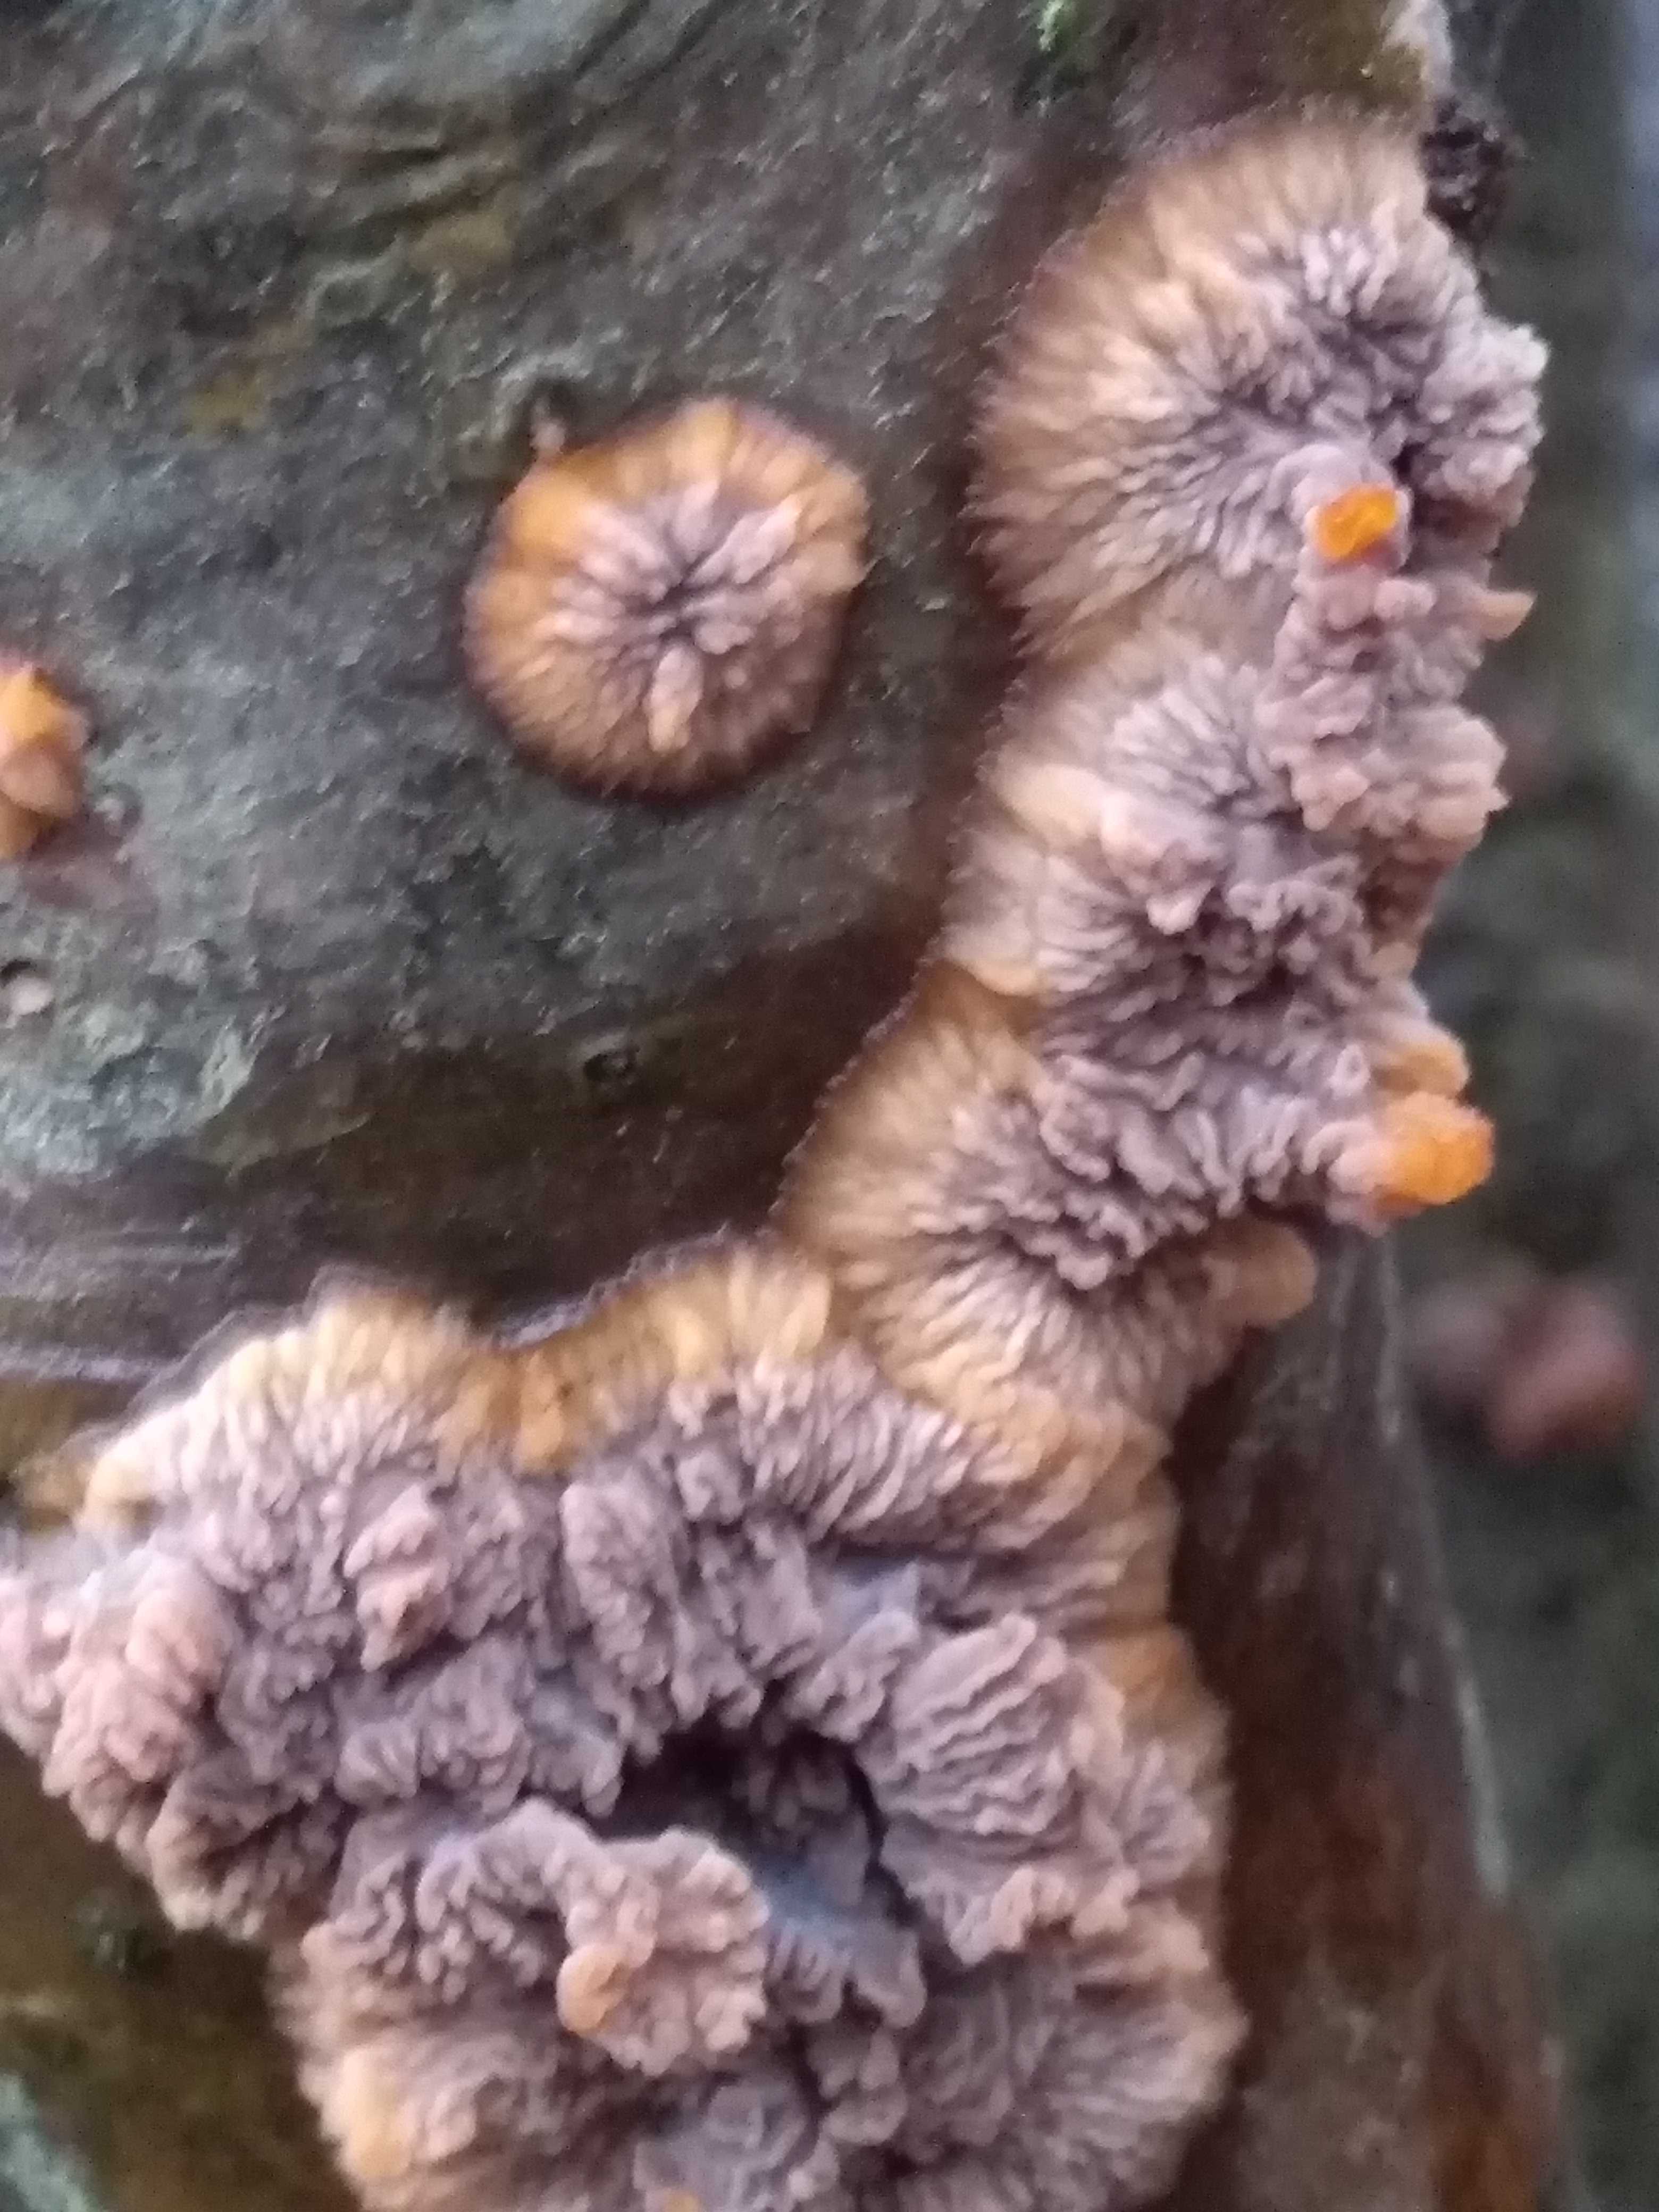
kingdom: Fungi
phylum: Basidiomycota
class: Agaricomycetes
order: Polyporales
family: Meruliaceae
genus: Phlebia
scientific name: Phlebia radiata
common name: stråle-åresvamp
